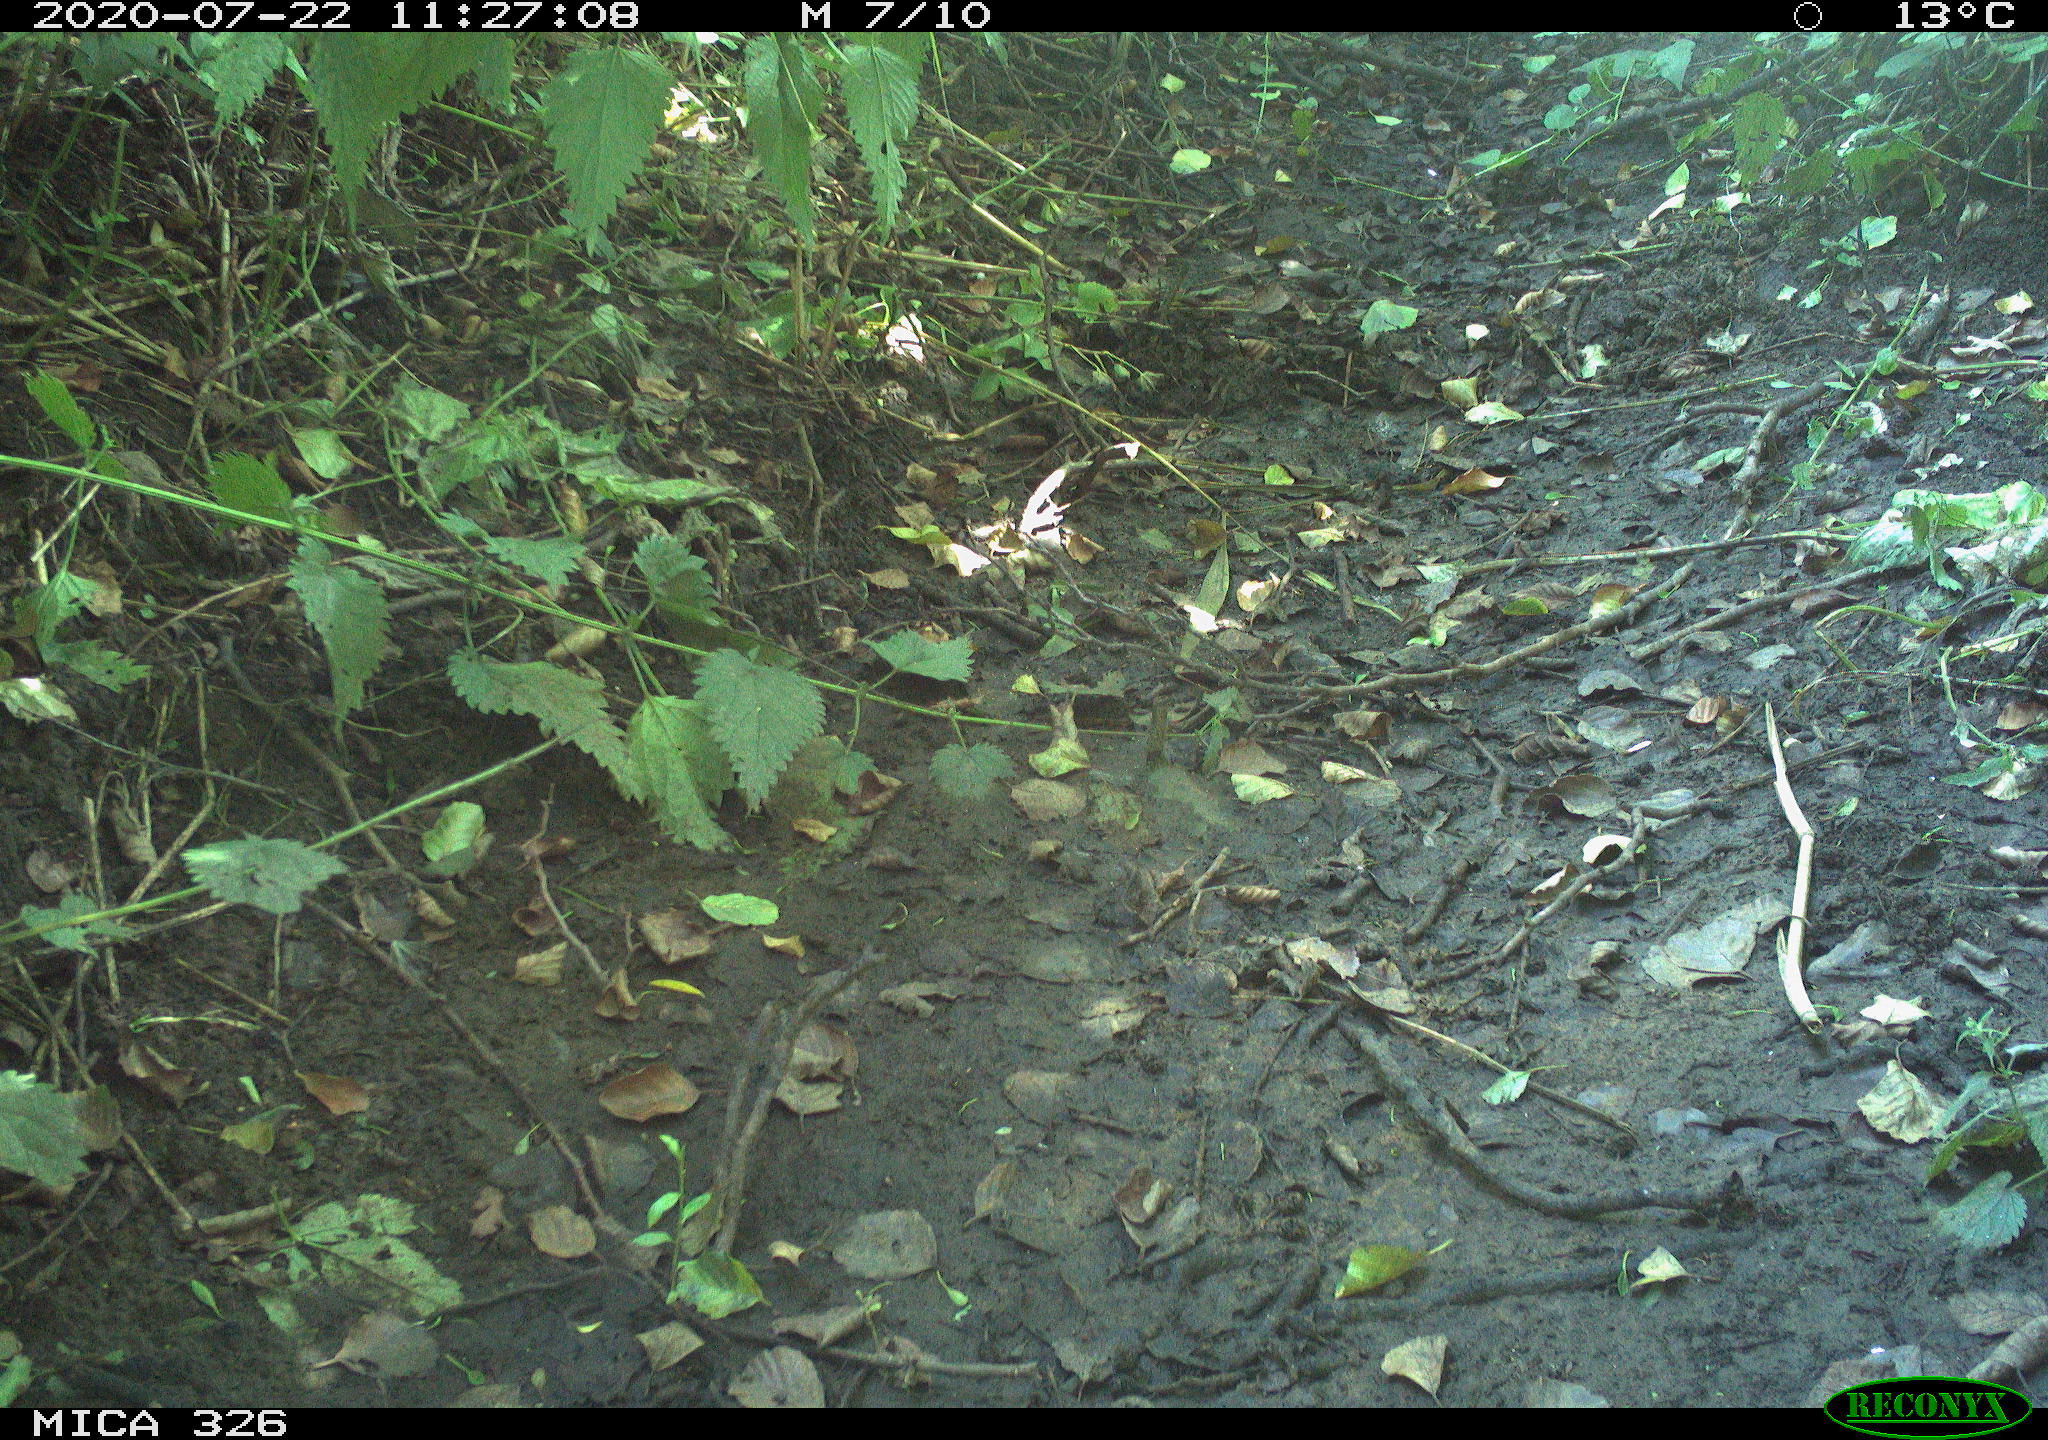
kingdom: Animalia
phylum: Chordata
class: Aves
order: Passeriformes
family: Turdidae
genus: Turdus
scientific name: Turdus philomelos
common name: Song thrush
